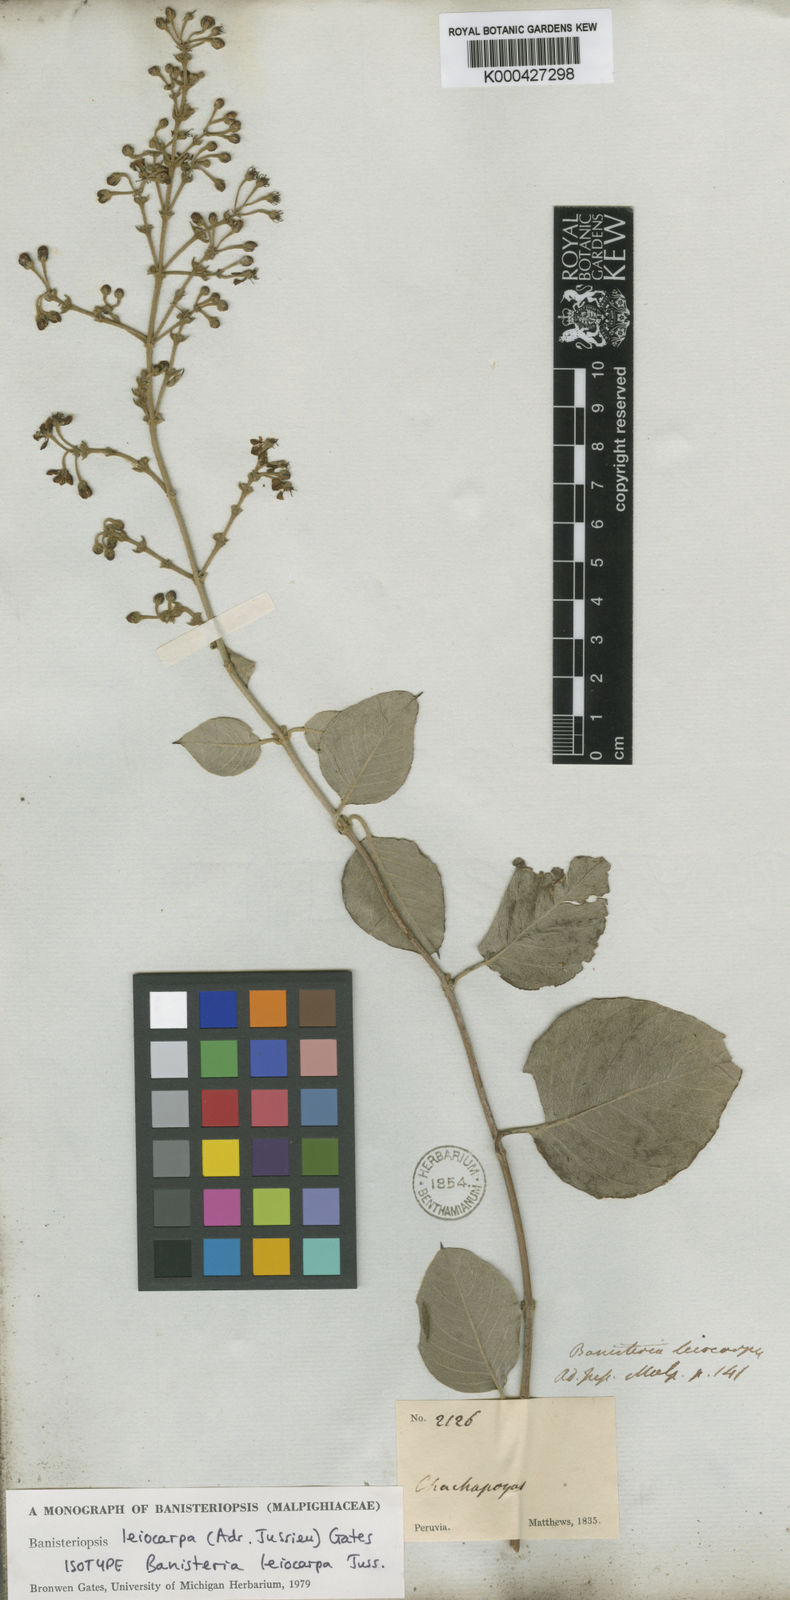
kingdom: Plantae
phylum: Tracheophyta
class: Magnoliopsida
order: Malpighiales
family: Malpighiaceae
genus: Diplopterys
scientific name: Diplopterys leiocarpa
